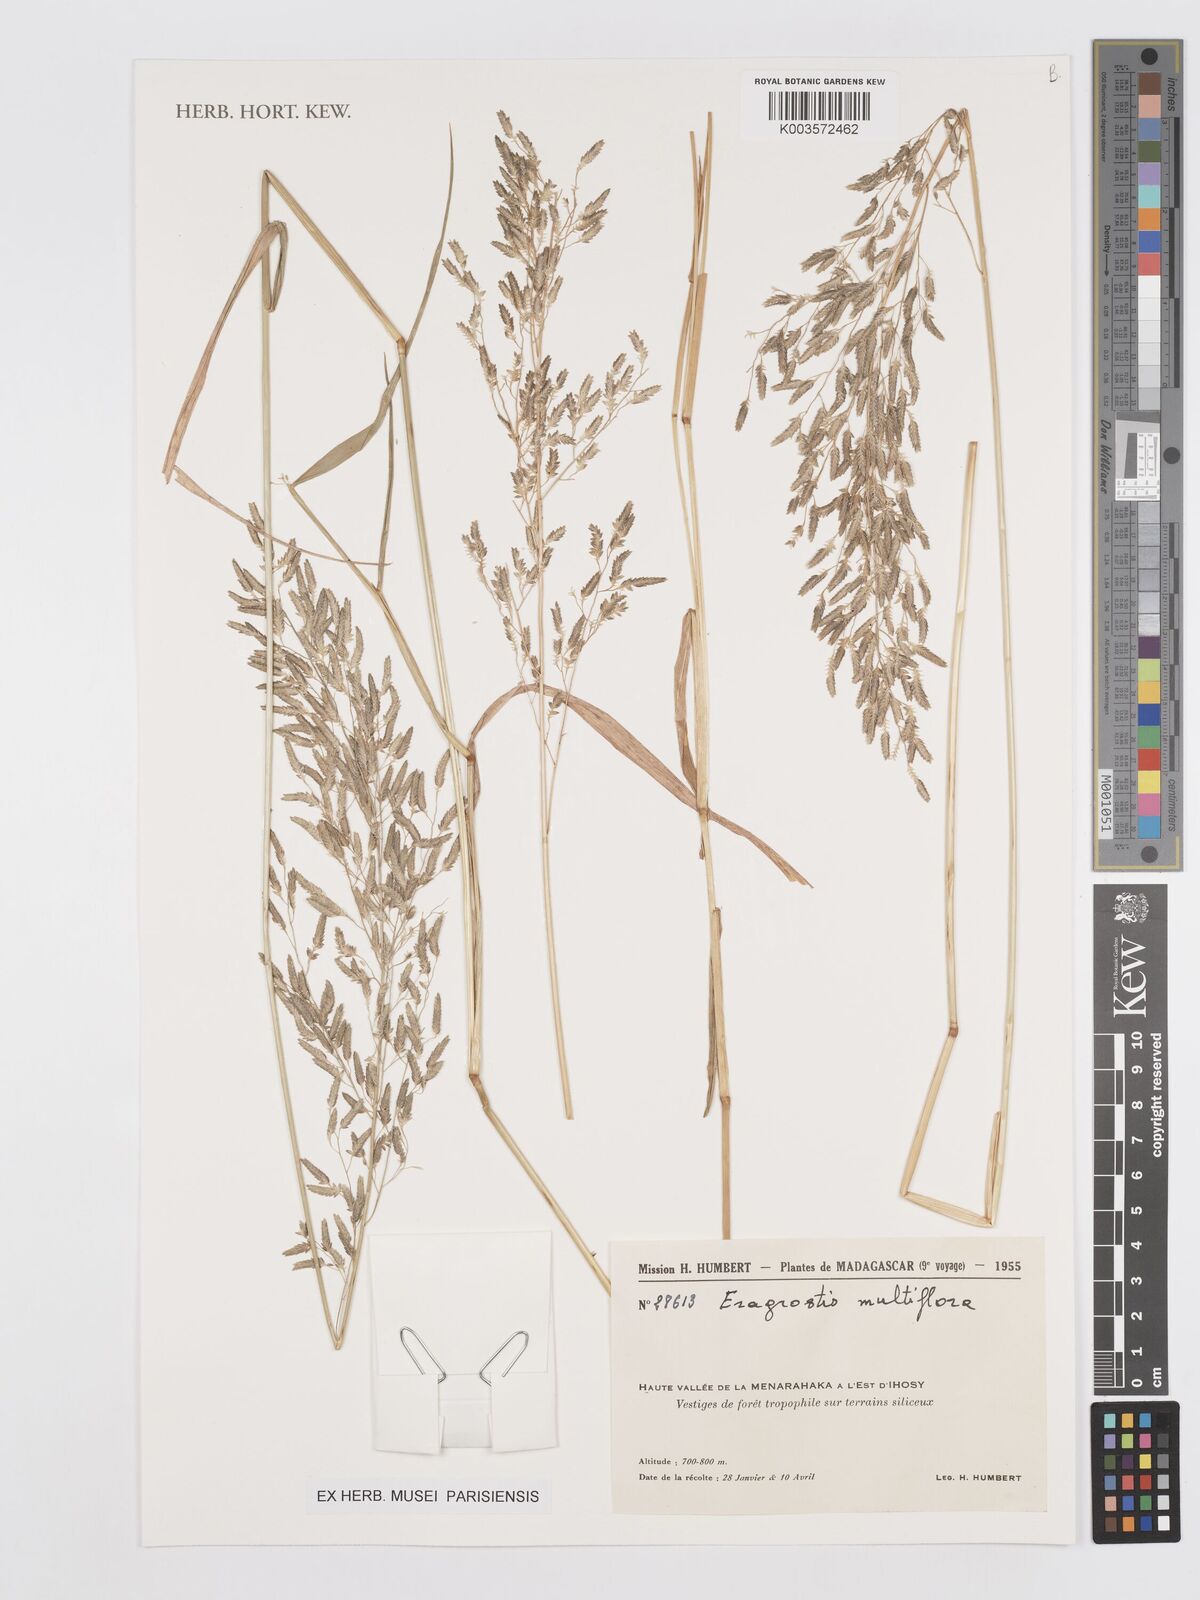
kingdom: Plantae
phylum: Tracheophyta
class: Liliopsida
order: Poales
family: Poaceae
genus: Eragrostis
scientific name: Eragrostis cilianensis
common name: Stinkgrass
